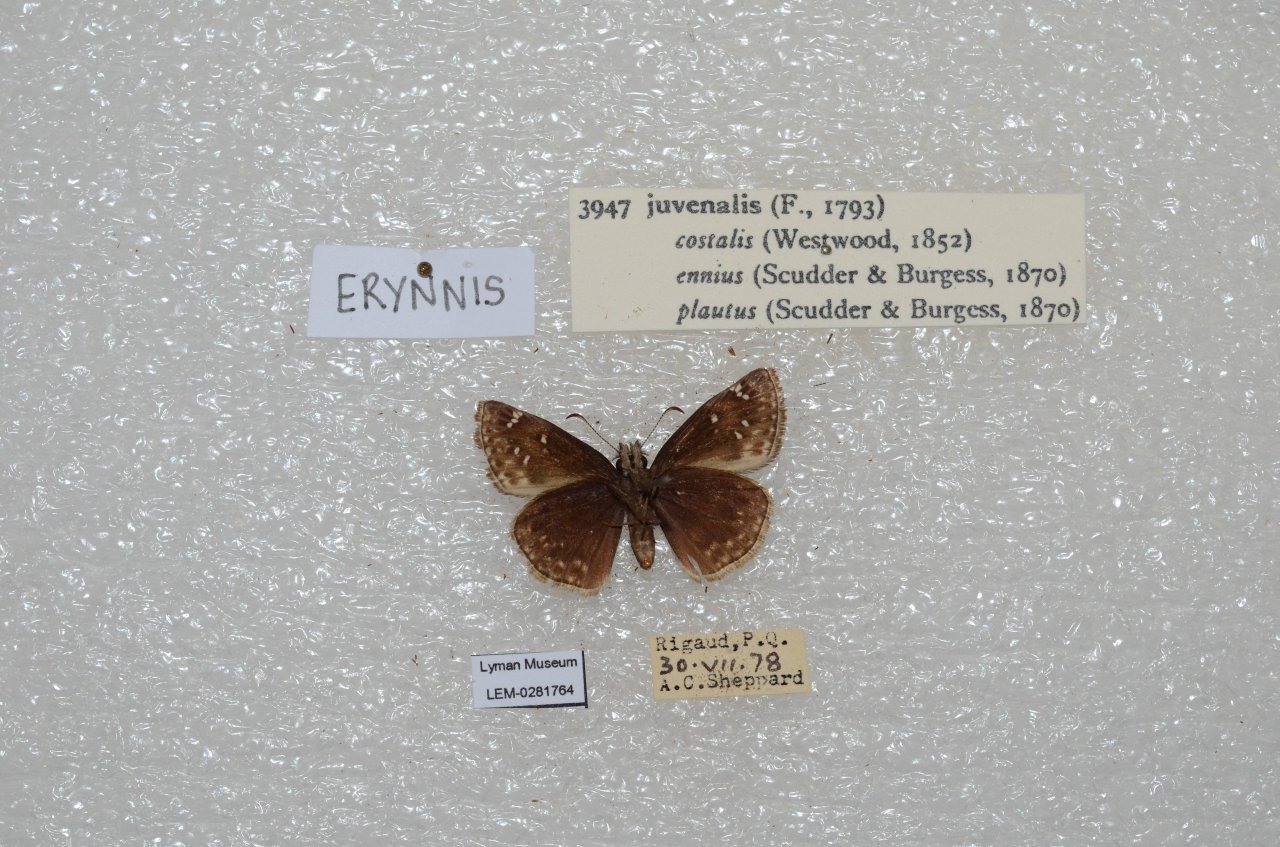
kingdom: Animalia
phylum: Arthropoda
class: Insecta
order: Lepidoptera
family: Hesperiidae
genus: Gesta
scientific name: Gesta
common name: Juvenal's Duskywing
